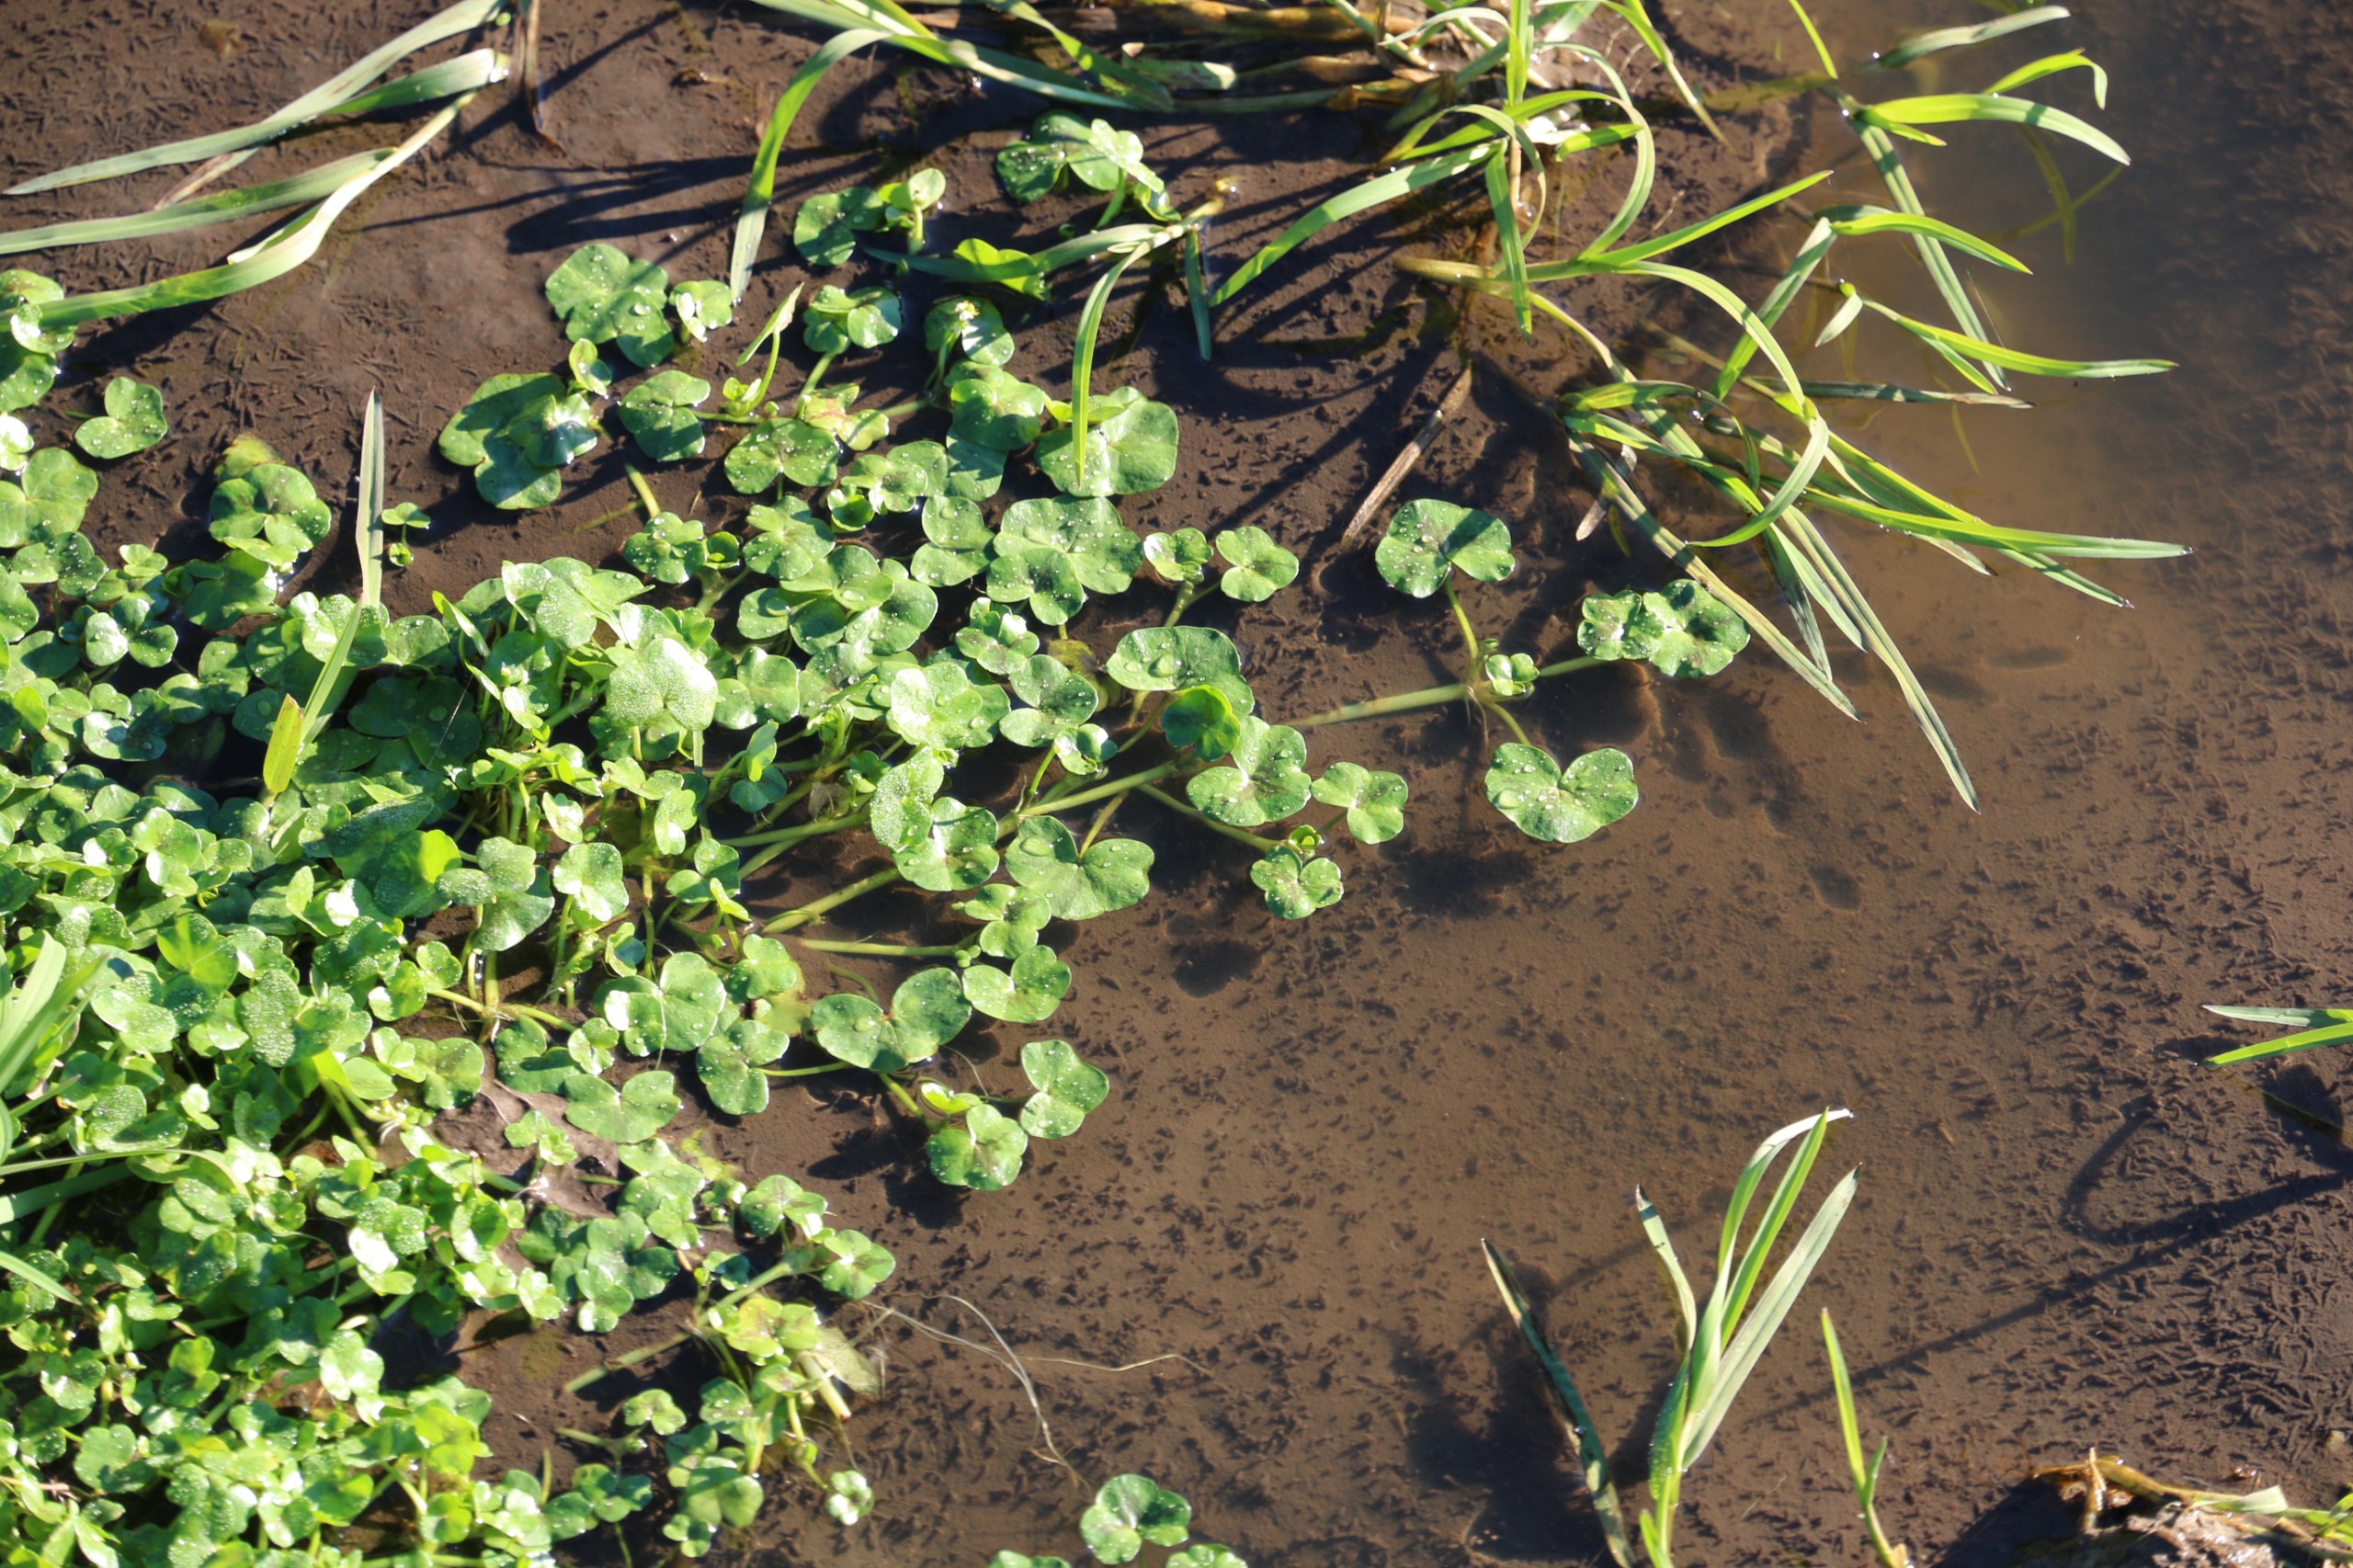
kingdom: Plantae
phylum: Tracheophyta
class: Magnoliopsida
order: Ranunculales
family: Ranunculaceae
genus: Ranunculus
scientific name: Ranunculus hederaceus
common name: Vedbend-vandranunkel
